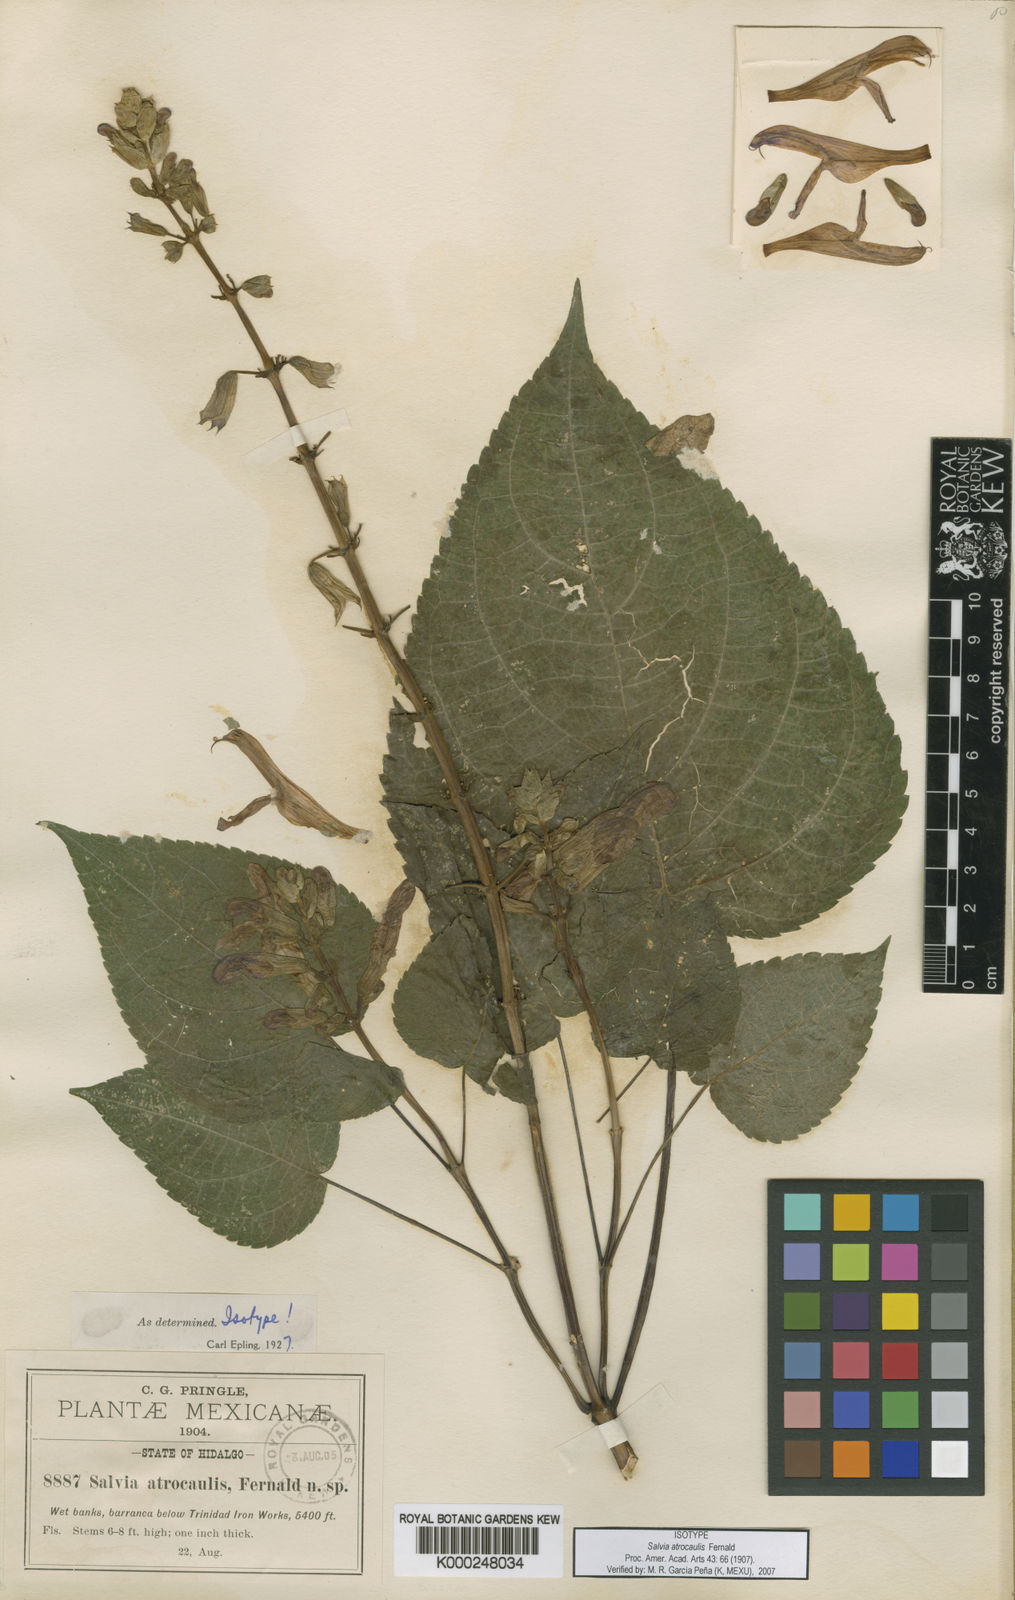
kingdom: Plantae
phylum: Tracheophyta
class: Magnoliopsida
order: Lamiales
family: Lamiaceae
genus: Salvia
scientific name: Salvia recurva
